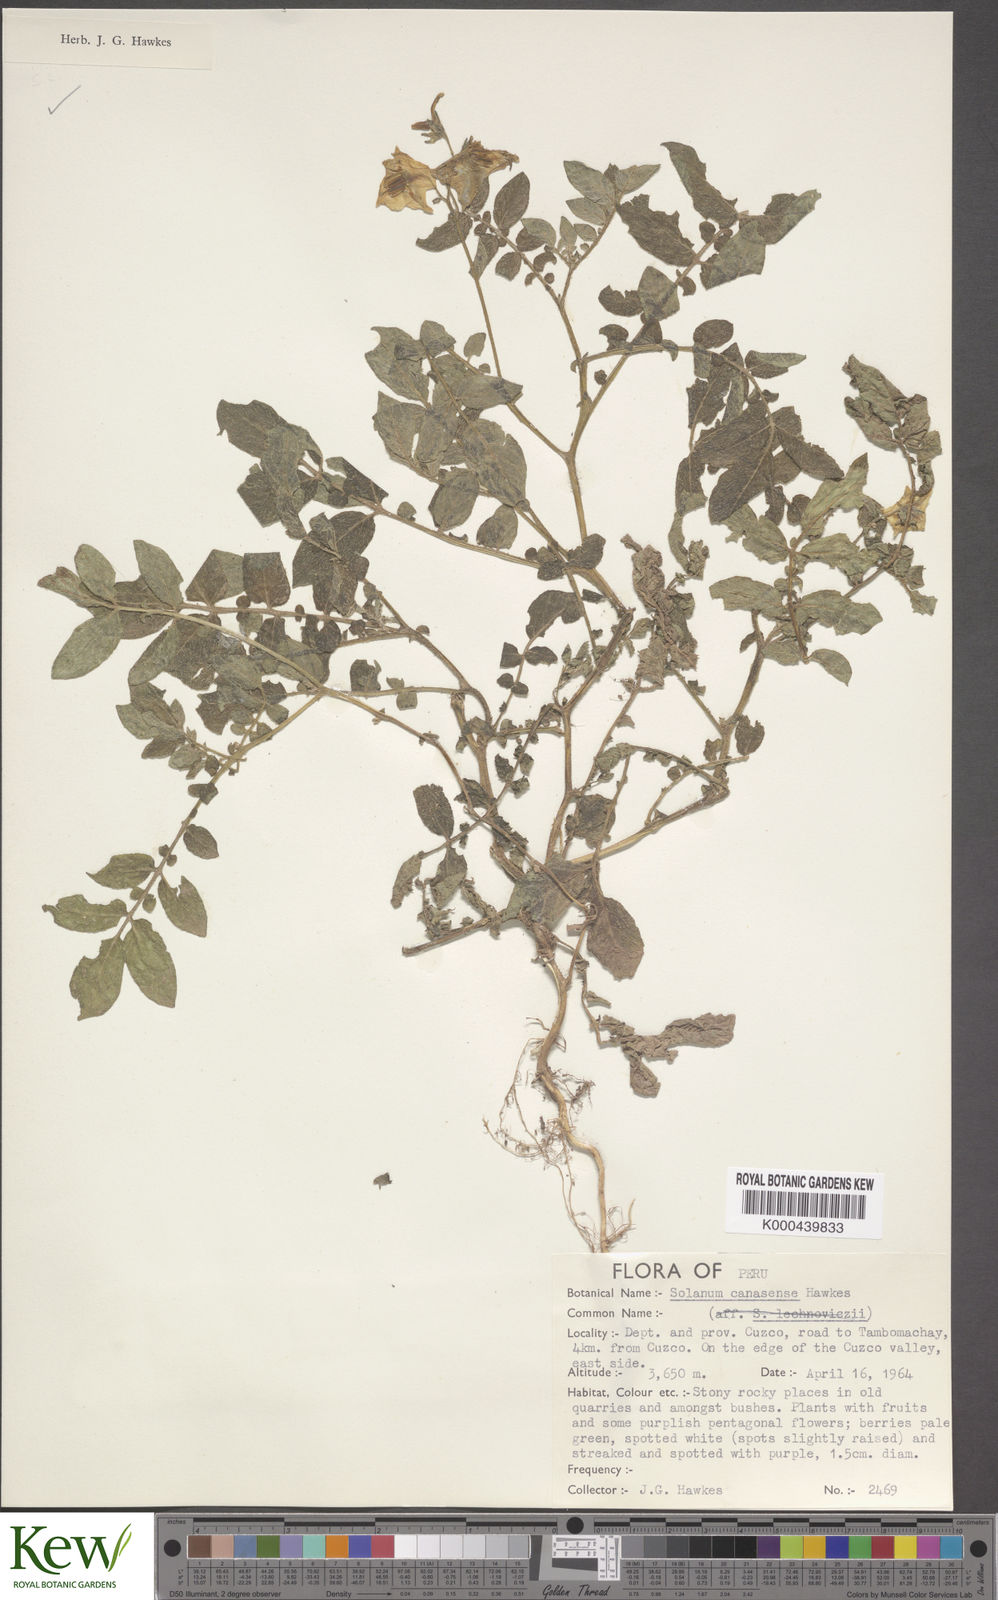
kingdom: Plantae
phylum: Tracheophyta
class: Magnoliopsida
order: Solanales
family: Solanaceae
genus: Solanum
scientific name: Solanum candolleanum
